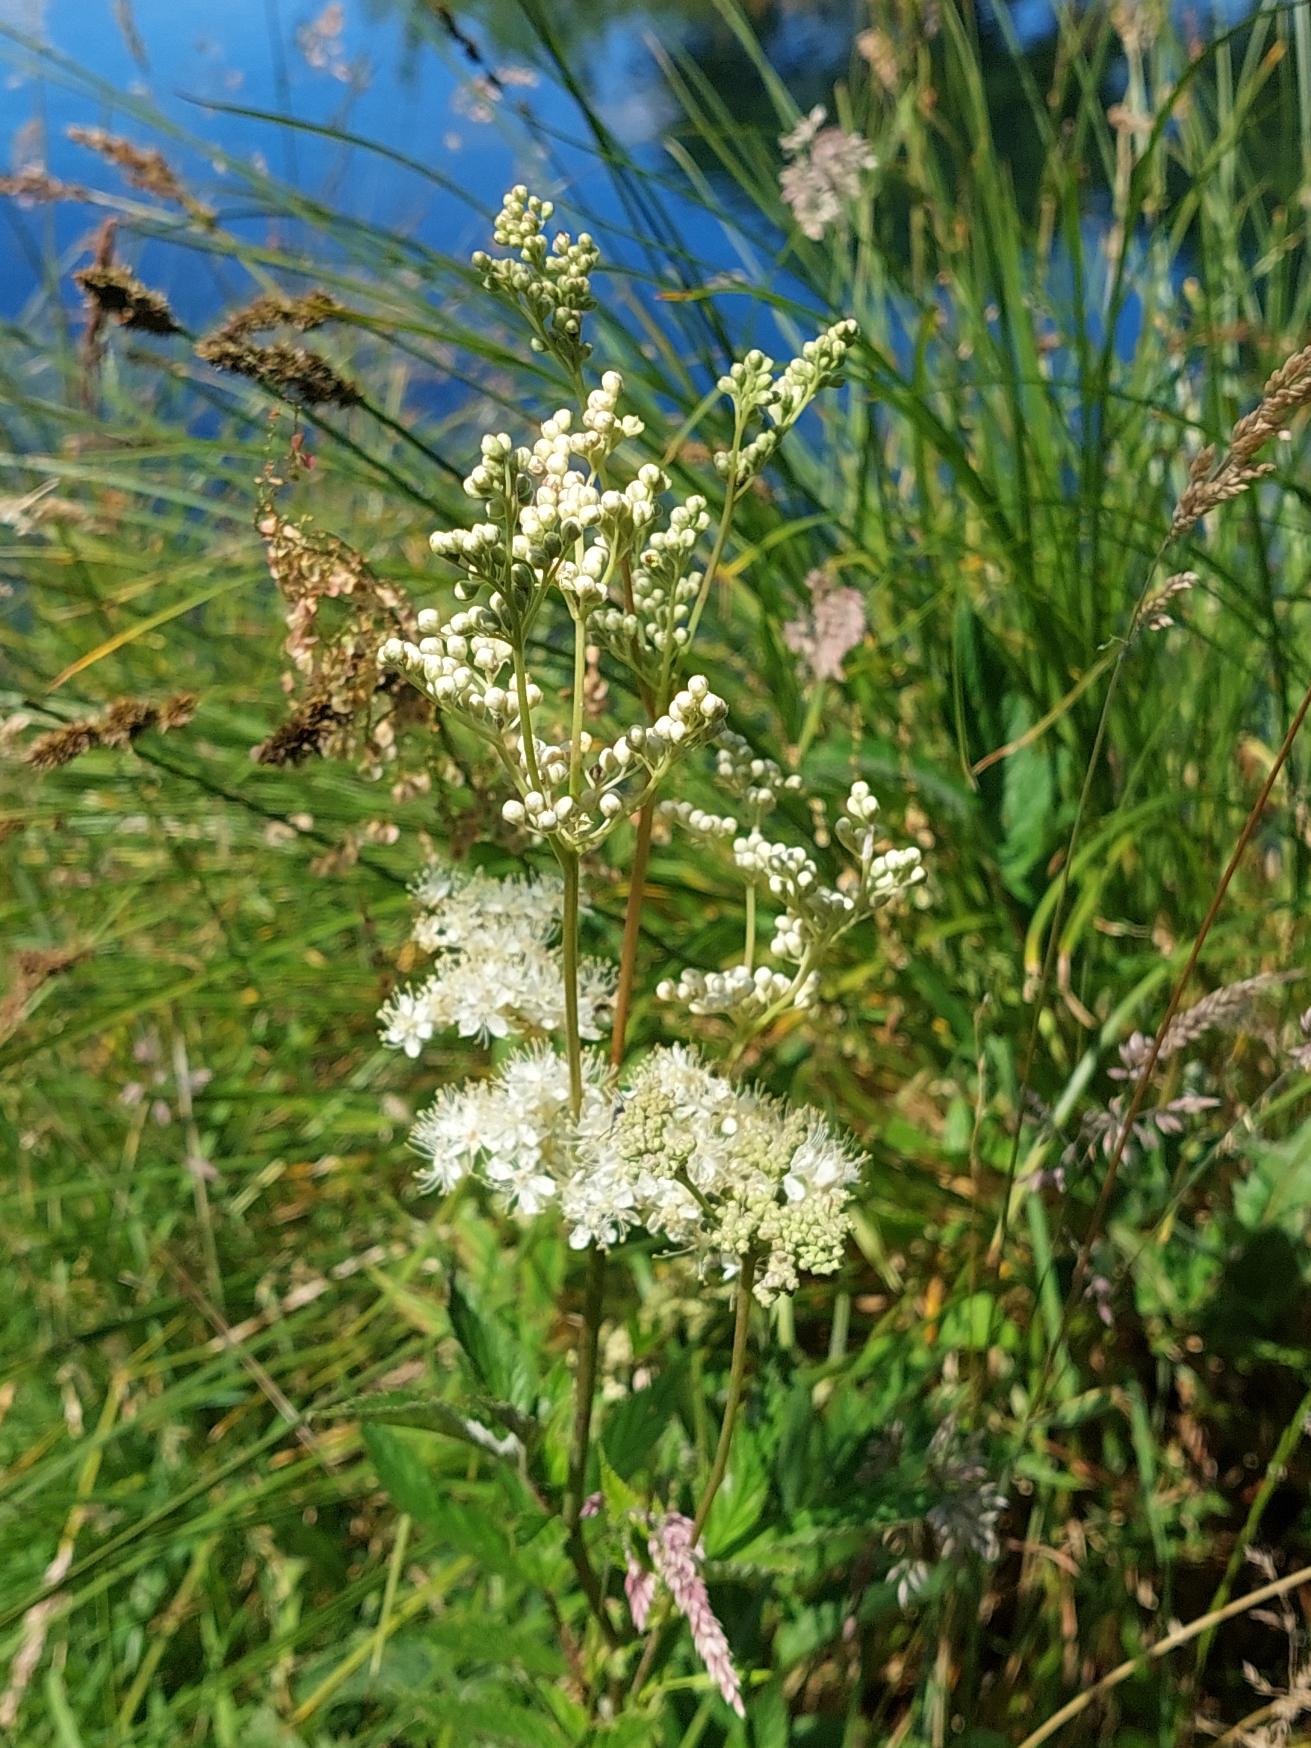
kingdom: Plantae
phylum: Tracheophyta
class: Magnoliopsida
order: Rosales
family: Rosaceae
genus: Filipendula
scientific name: Filipendula ulmaria
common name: Almindelig mjødurt
